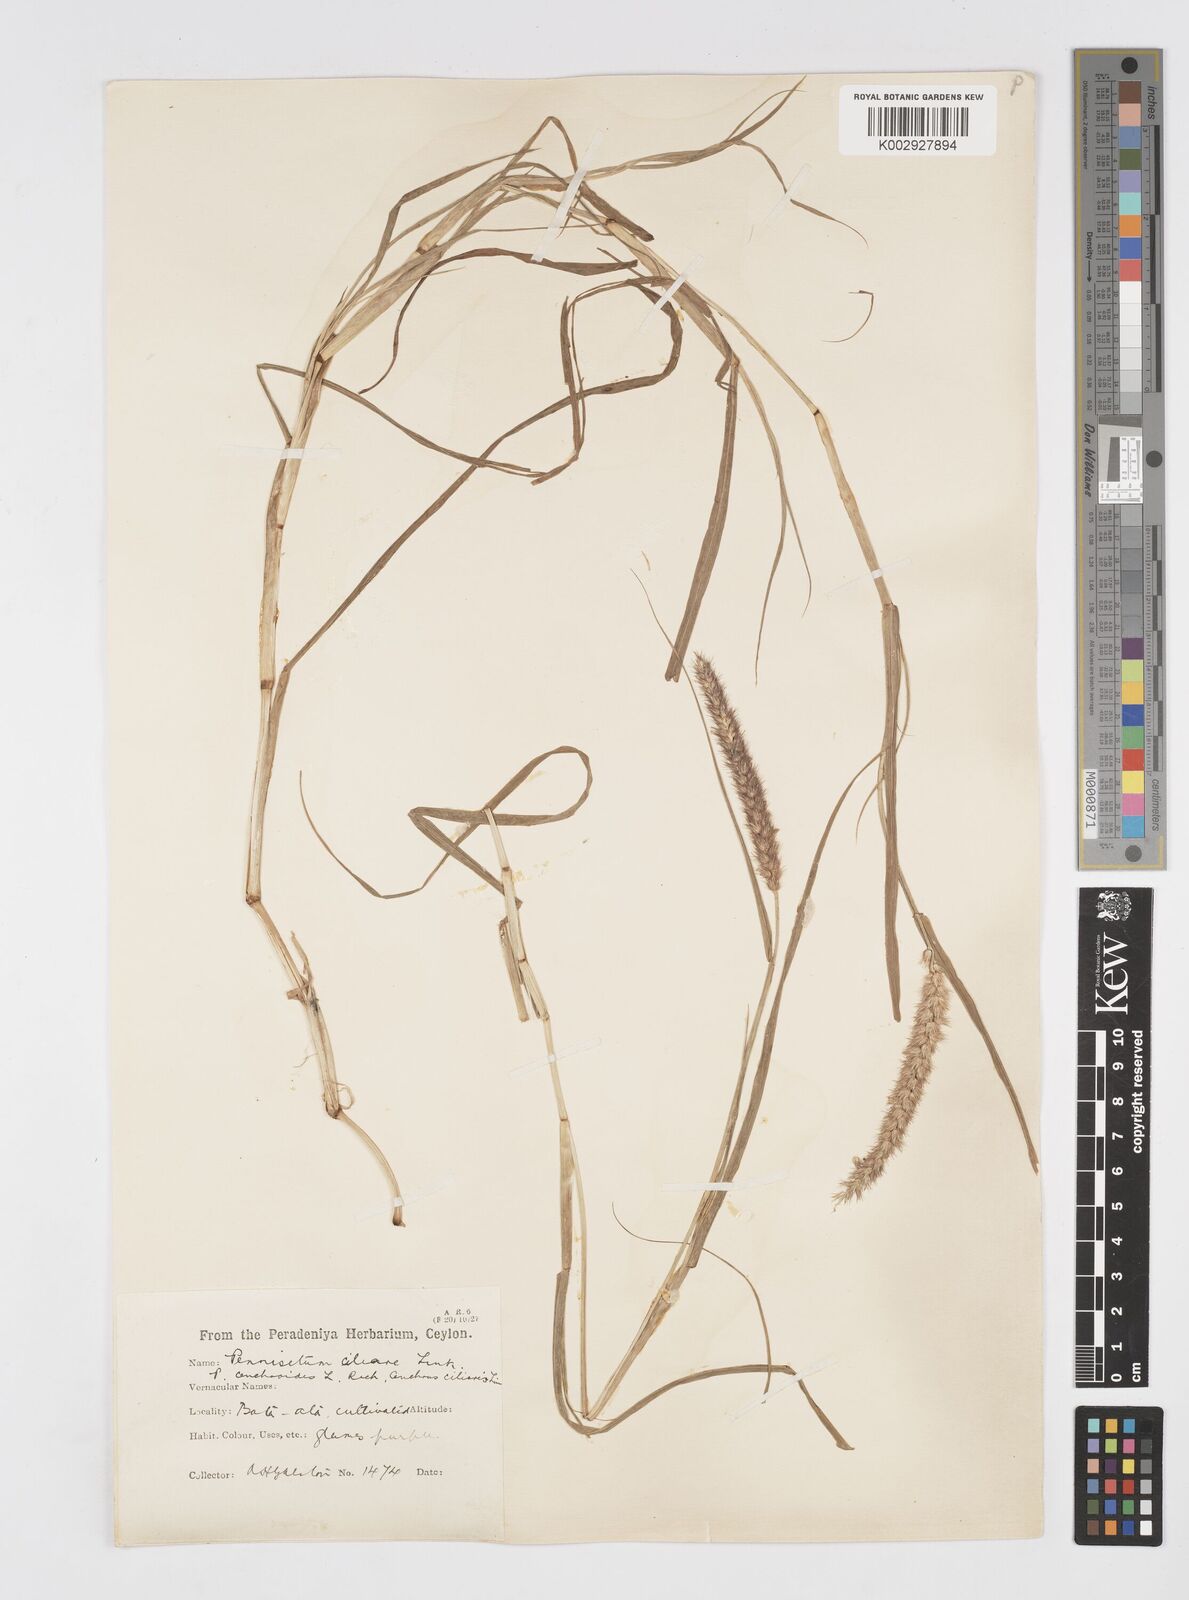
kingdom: Plantae
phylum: Tracheophyta
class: Liliopsida
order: Poales
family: Poaceae
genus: Cenchrus
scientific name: Cenchrus echinatus
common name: Southern sandbur
